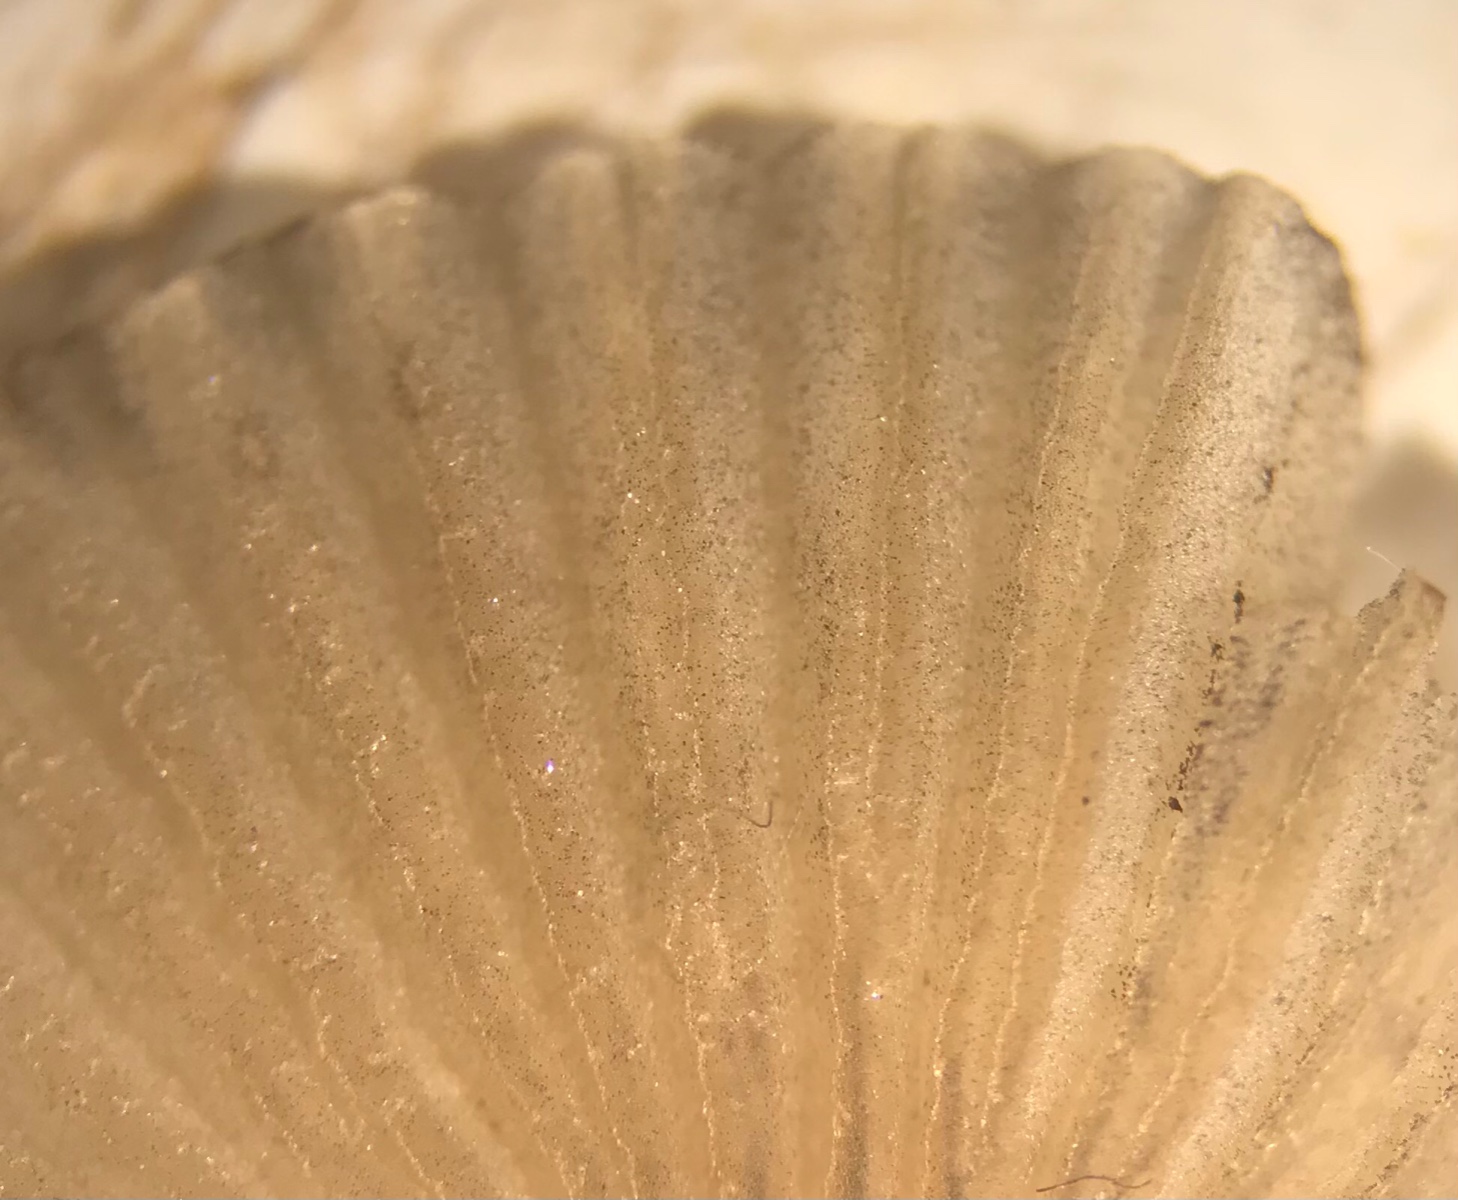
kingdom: Fungi
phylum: Basidiomycota
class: Agaricomycetes
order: Agaricales
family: Psathyrellaceae
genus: Parasola
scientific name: Parasola
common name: hjulhat
